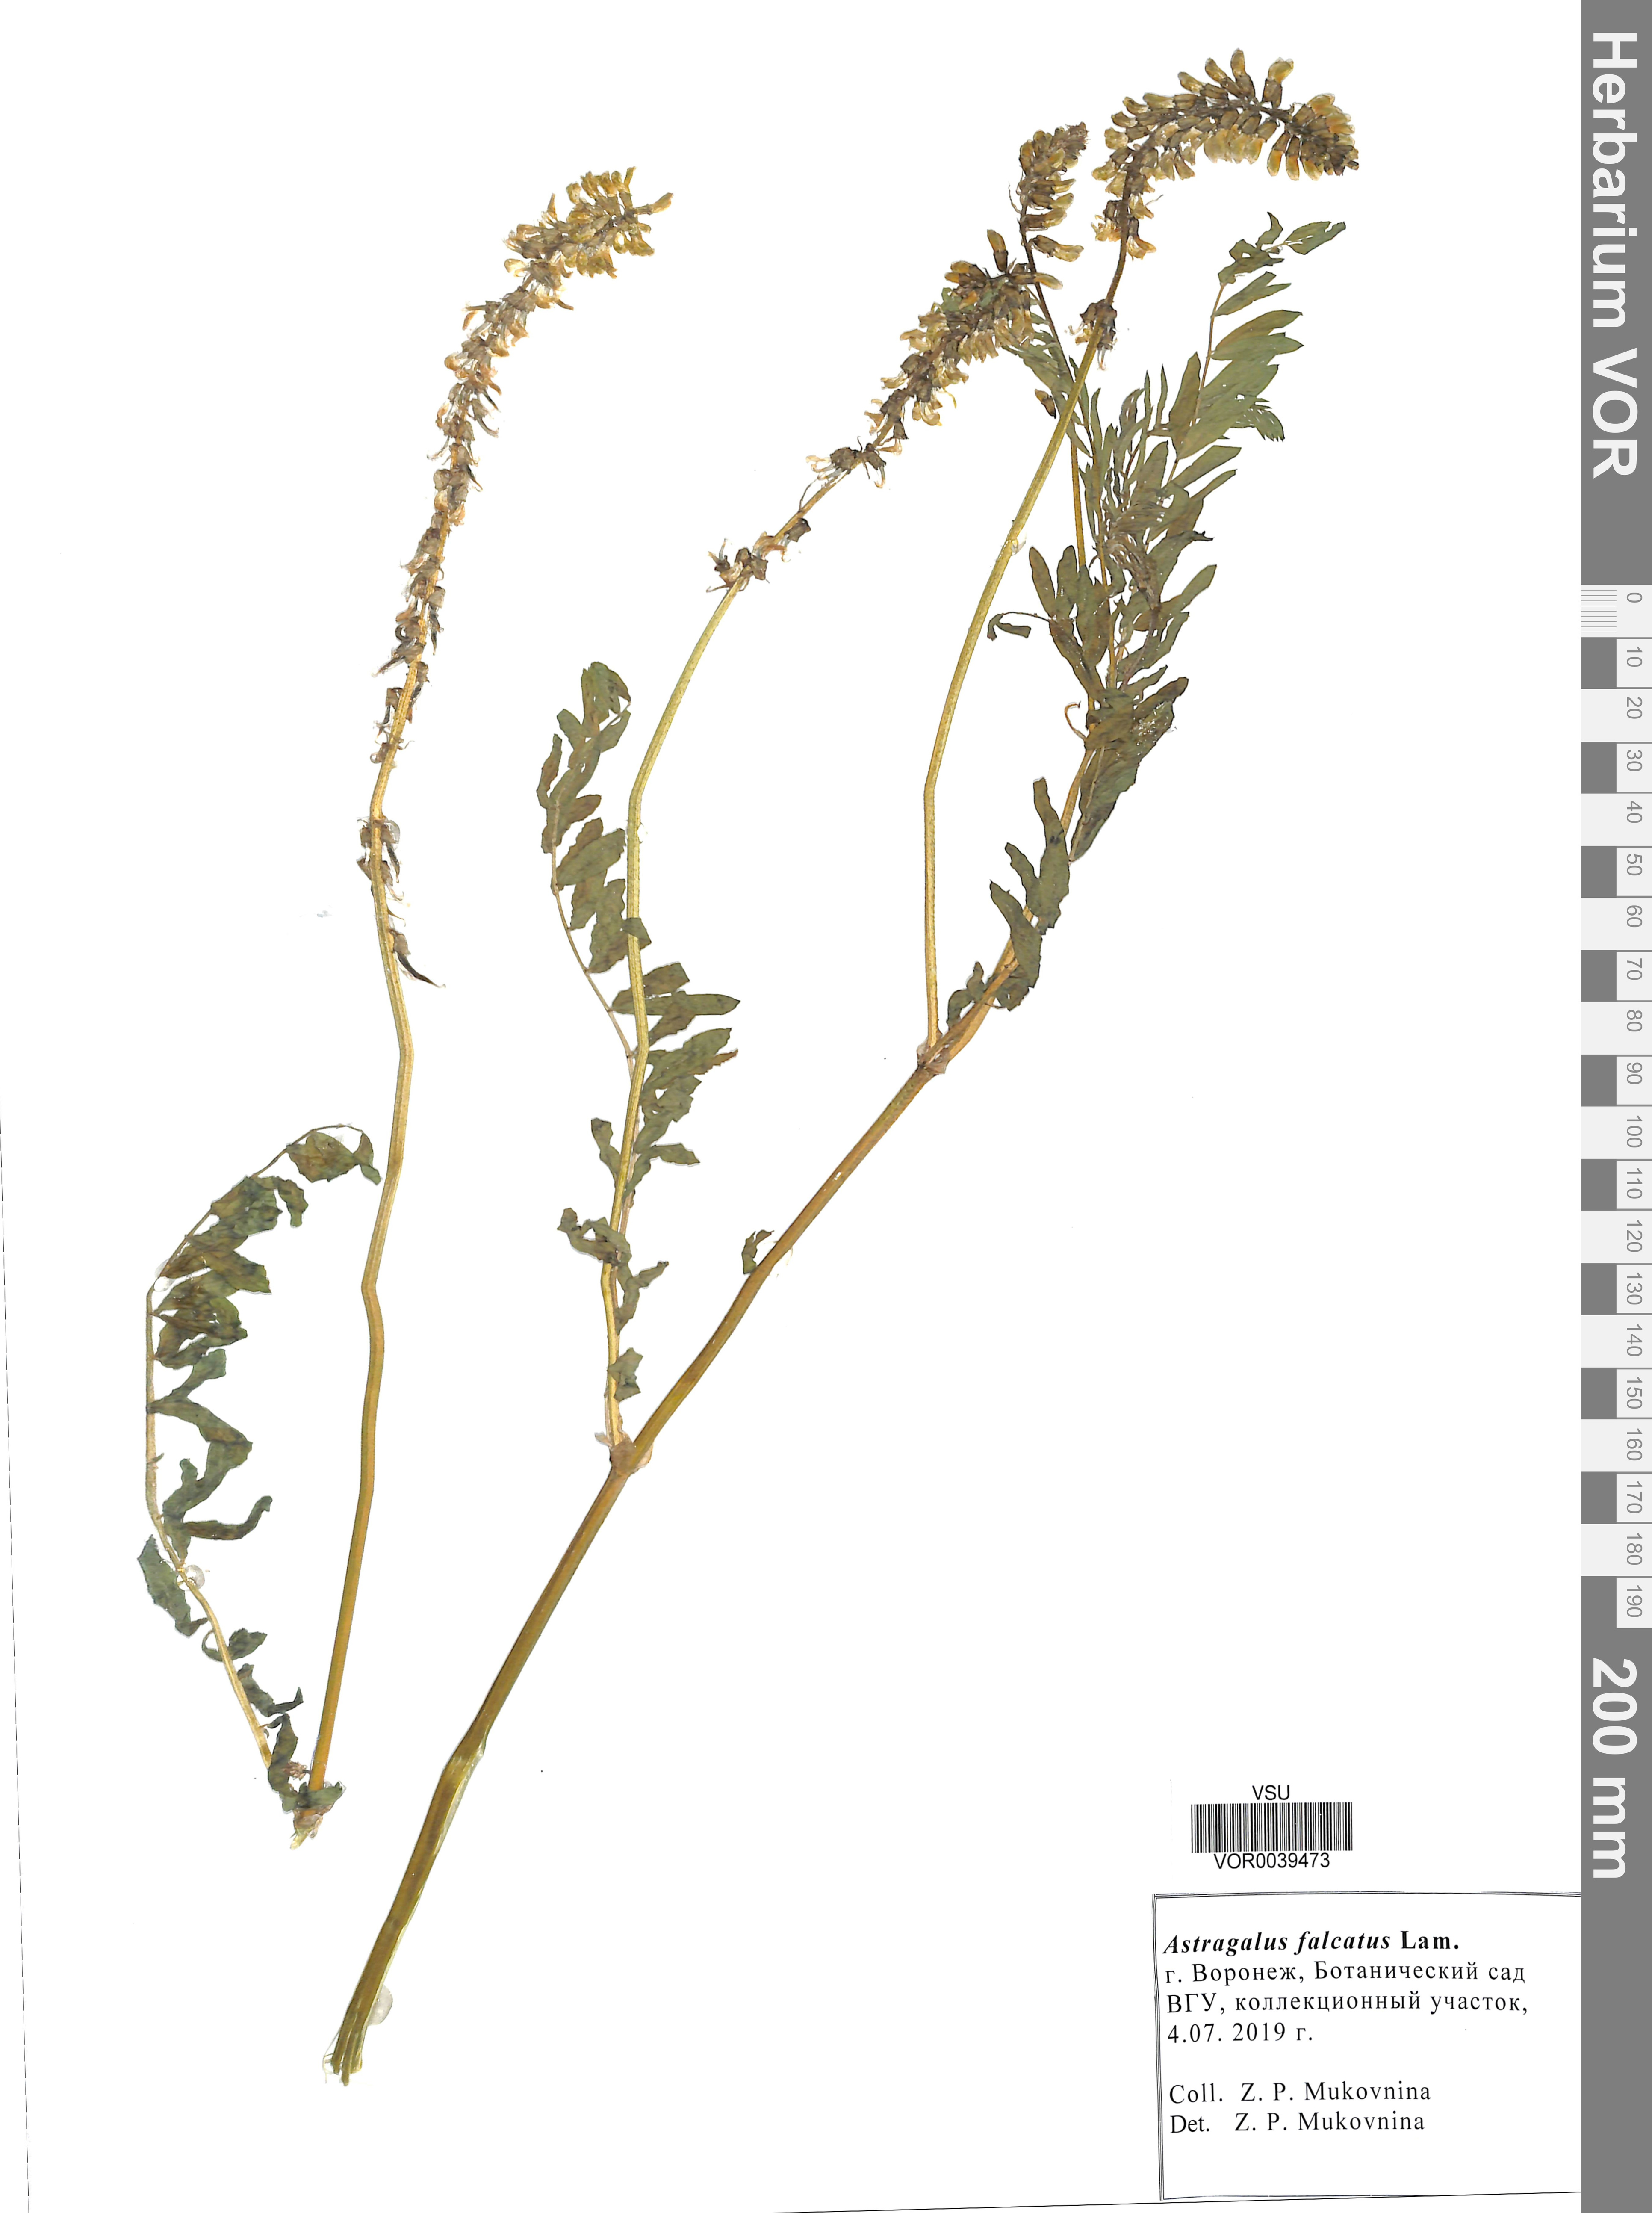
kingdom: Plantae
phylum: Tracheophyta
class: Magnoliopsida
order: Fabales
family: Fabaceae
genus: Astragalus
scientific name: Astragalus falcatus
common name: Russian sickle milk-vetch
